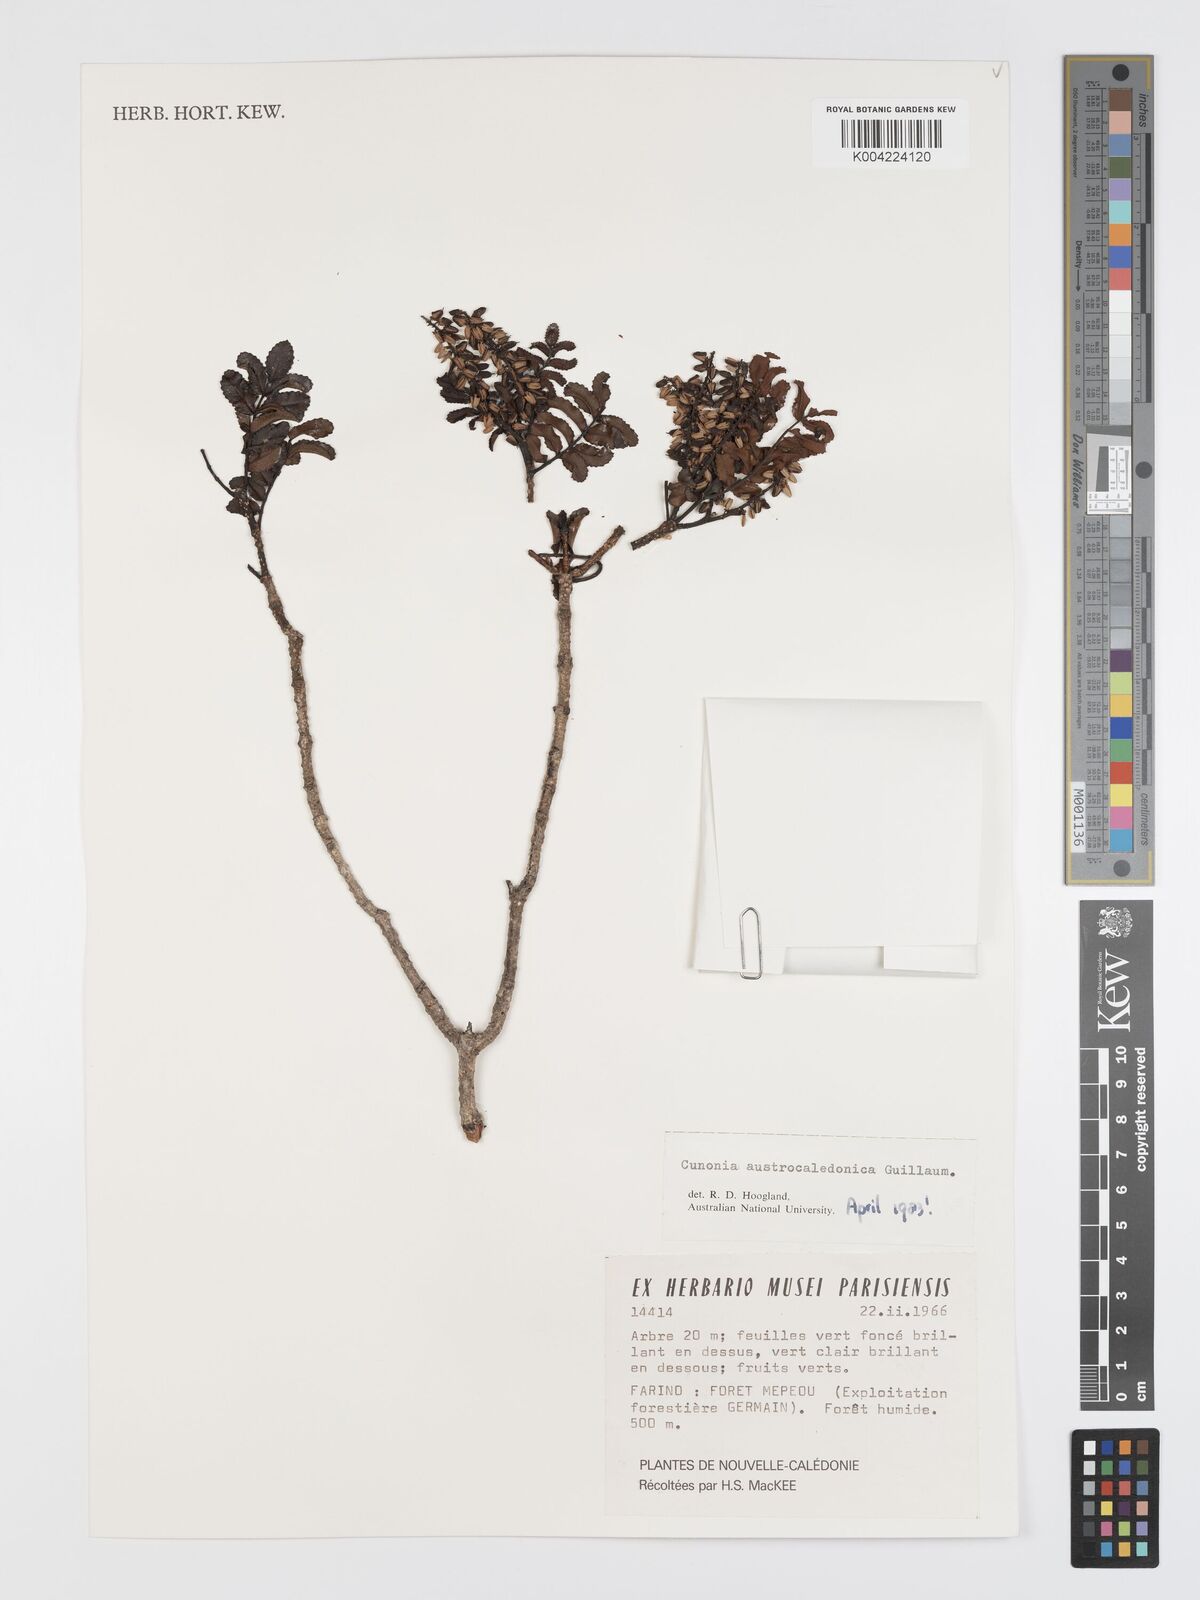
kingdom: Plantae
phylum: Tracheophyta
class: Magnoliopsida
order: Oxalidales
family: Cunoniaceae
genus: Cunonia
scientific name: Cunonia austrocaledonica
